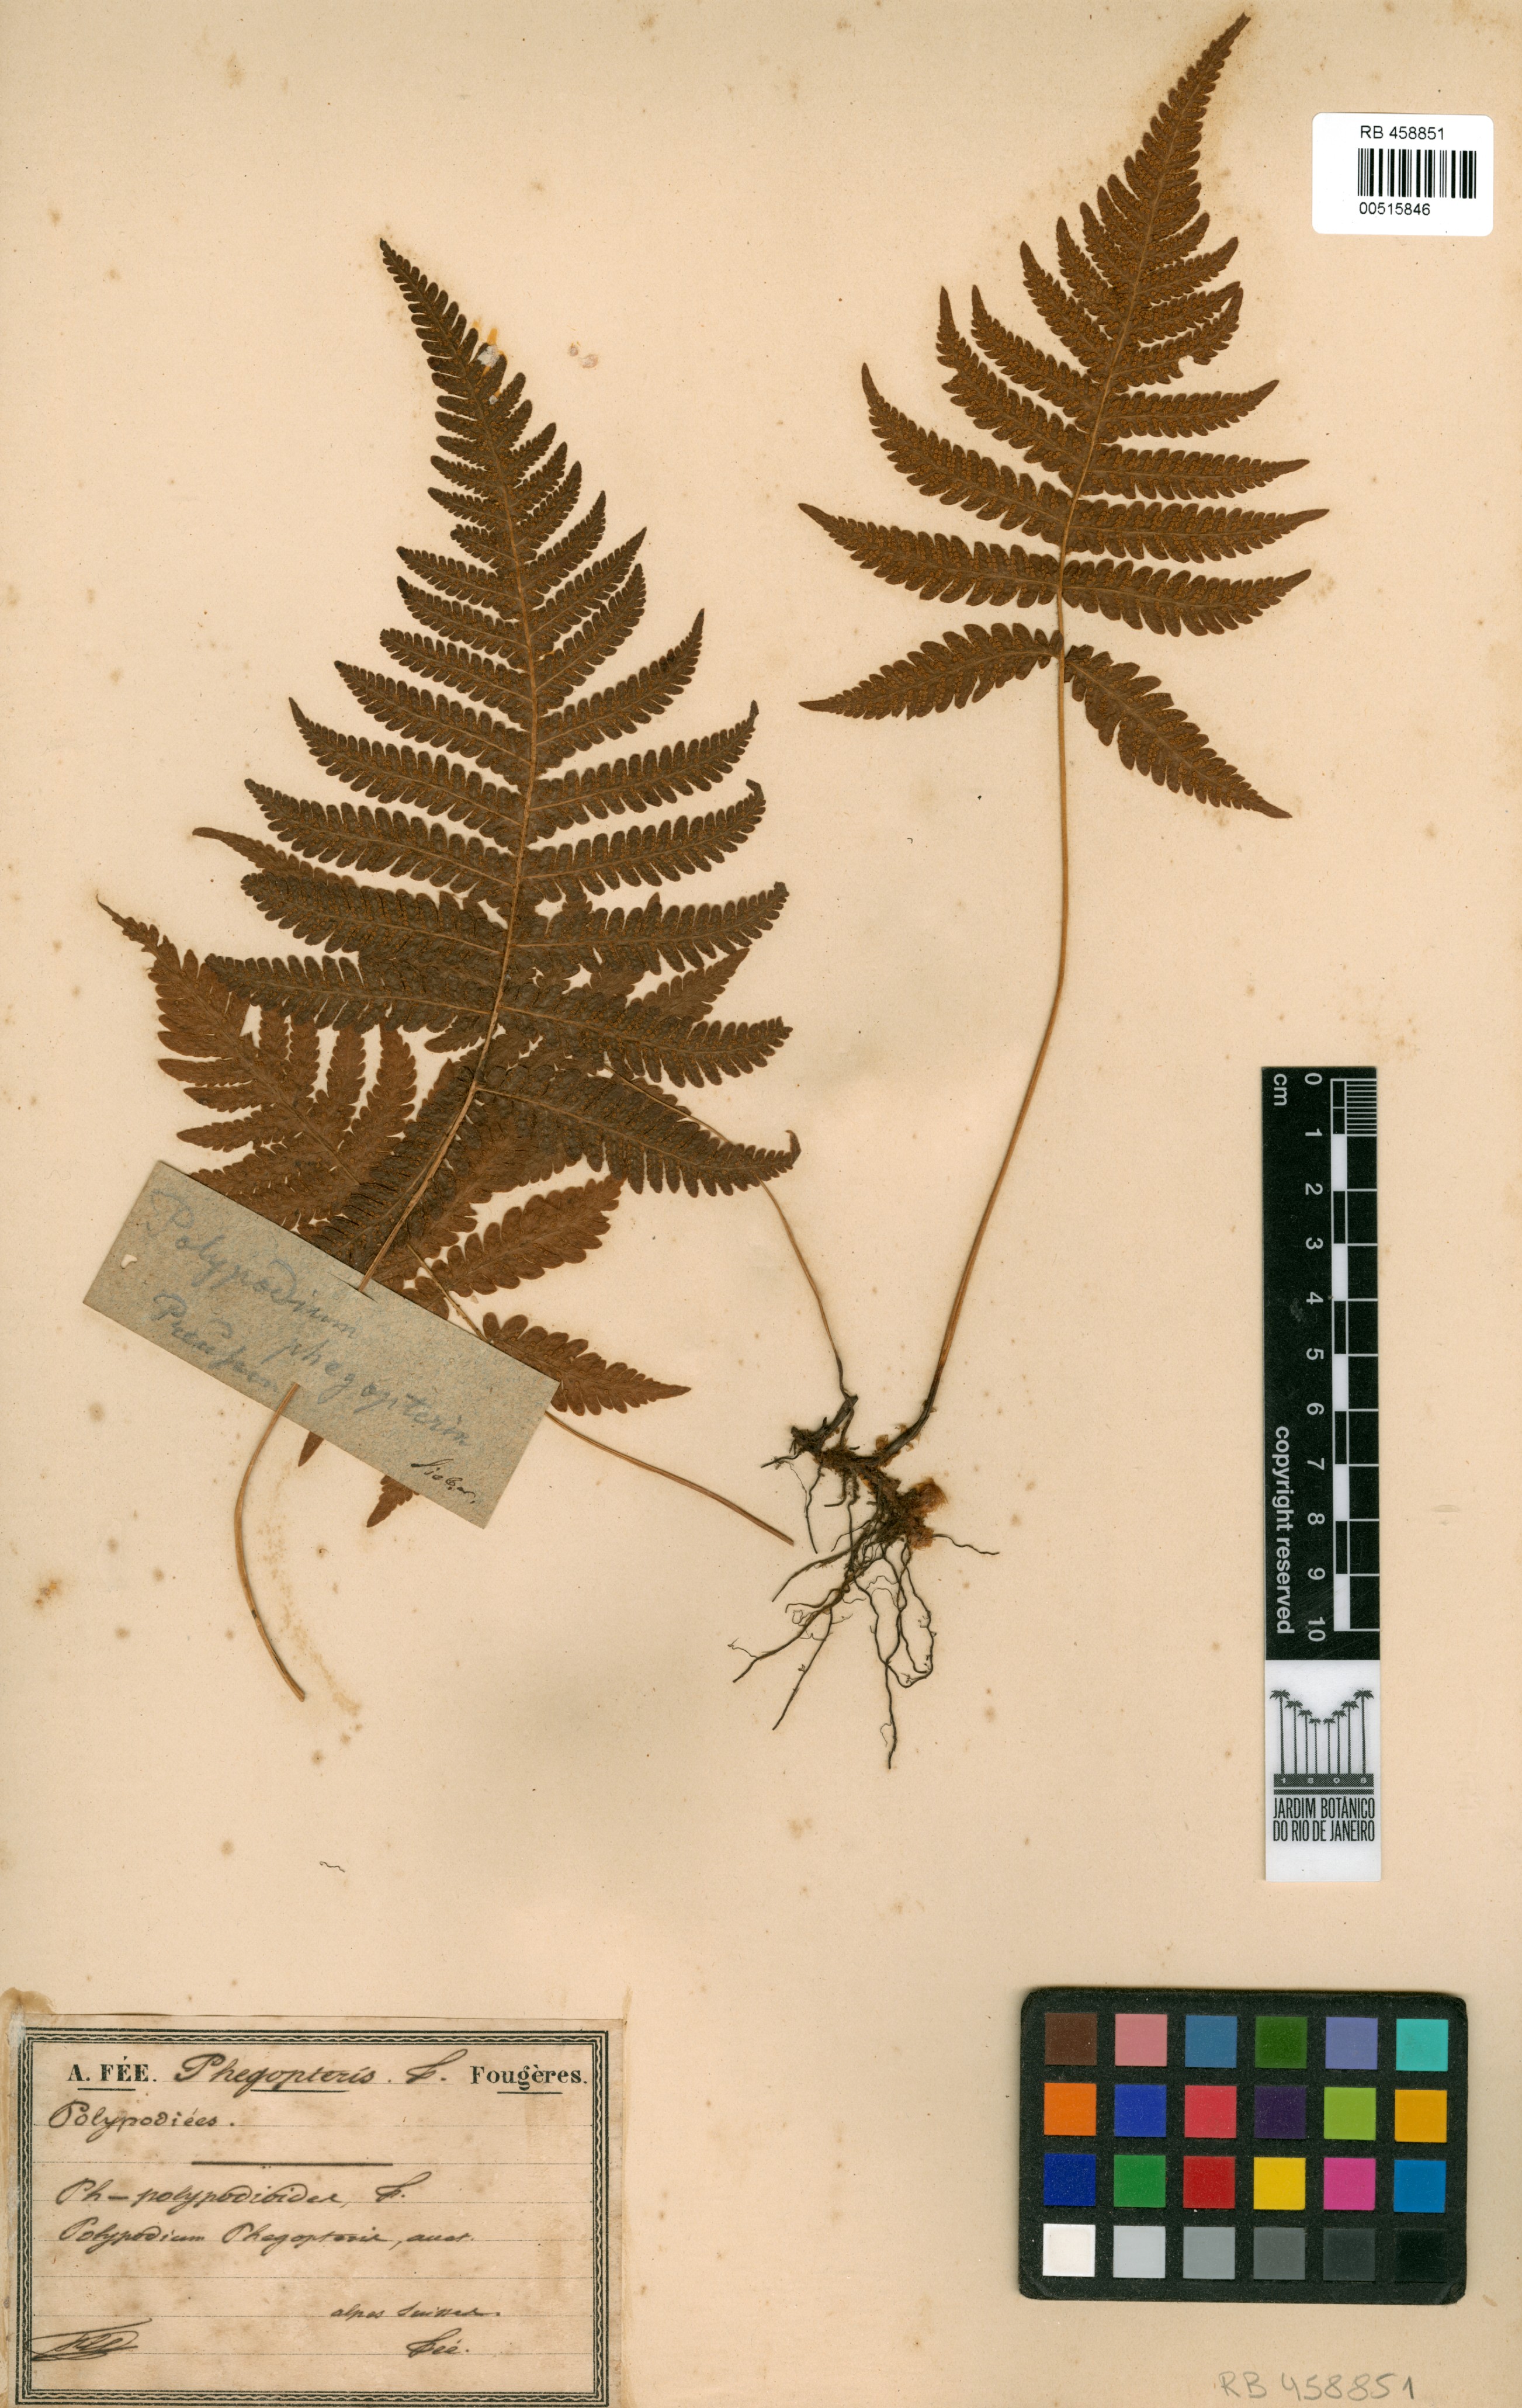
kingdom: Plantae
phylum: Tracheophyta
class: Polypodiopsida
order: Polypodiales
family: Thelypteridaceae
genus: Phegopteris
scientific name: Phegopteris connectilis
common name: Beech fern
